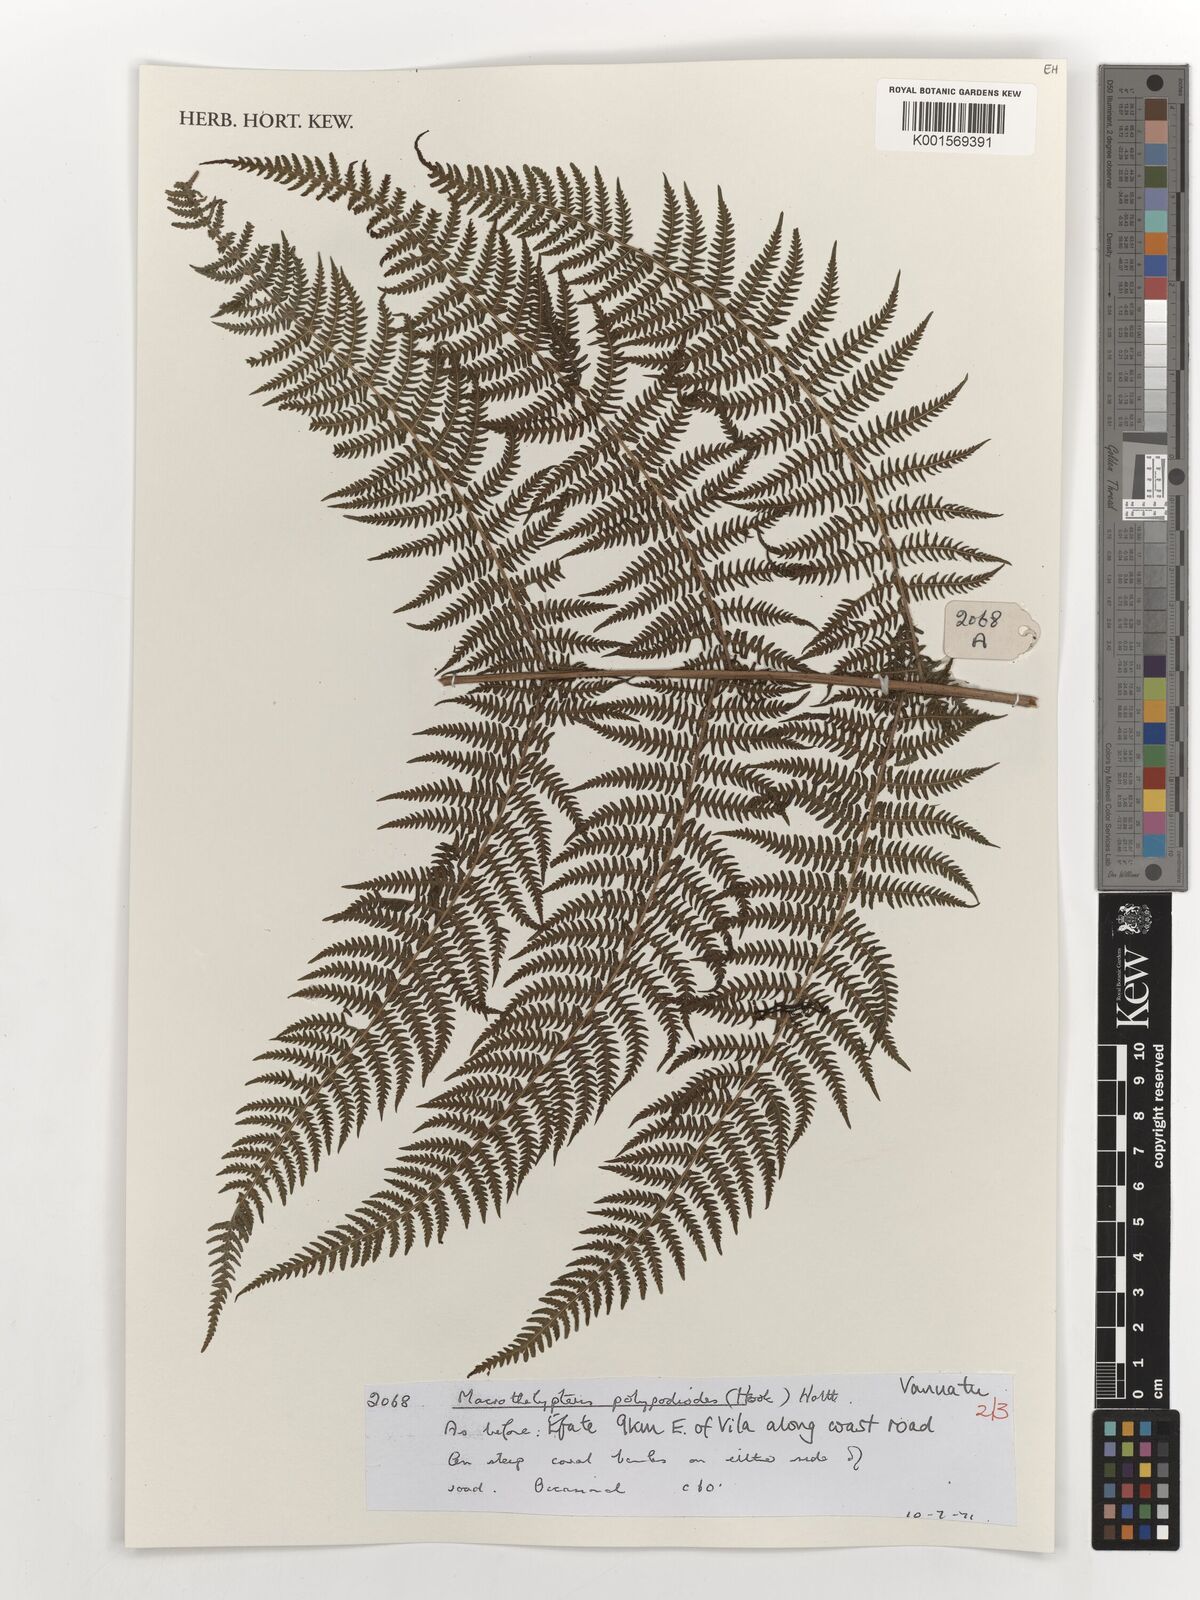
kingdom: Plantae
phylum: Tracheophyta
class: Polypodiopsida
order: Polypodiales
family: Thelypteridaceae
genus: Macrothelypteris
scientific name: Macrothelypteris polypodioides
